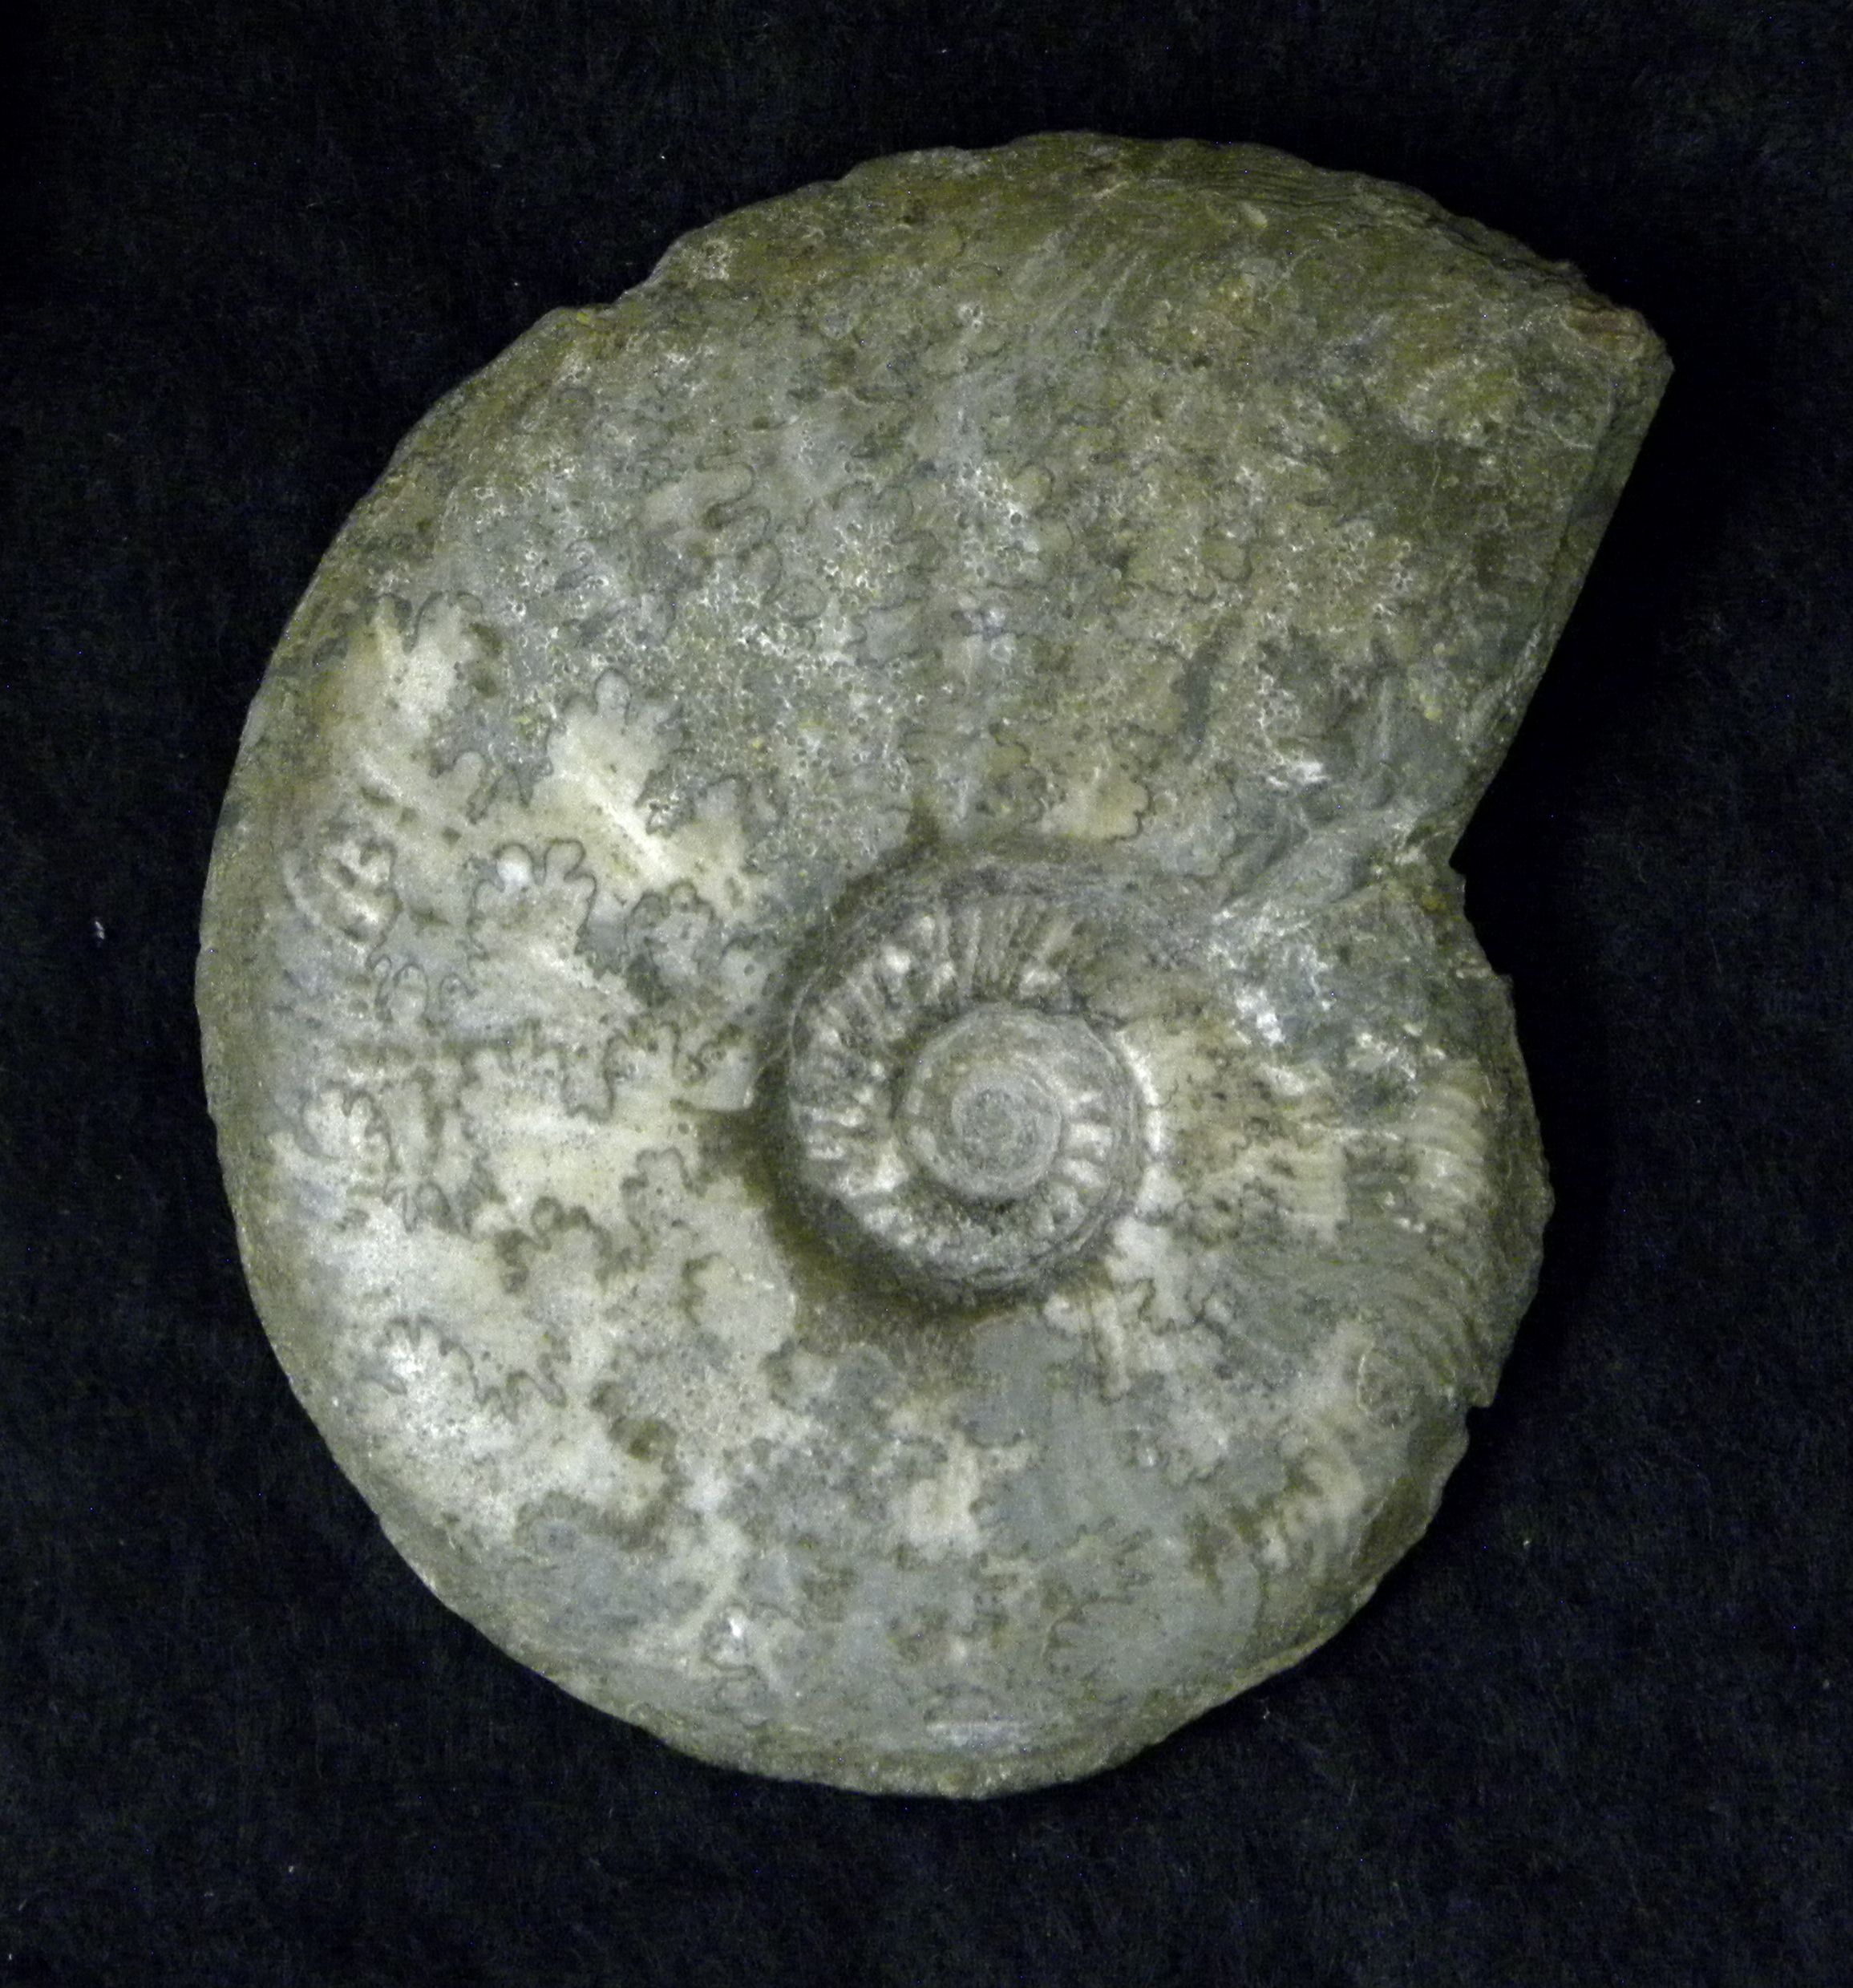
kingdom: Animalia
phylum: Mollusca
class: Cephalopoda
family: Hildoceratidae
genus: Pleydellia
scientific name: Pleydellia buckmani
